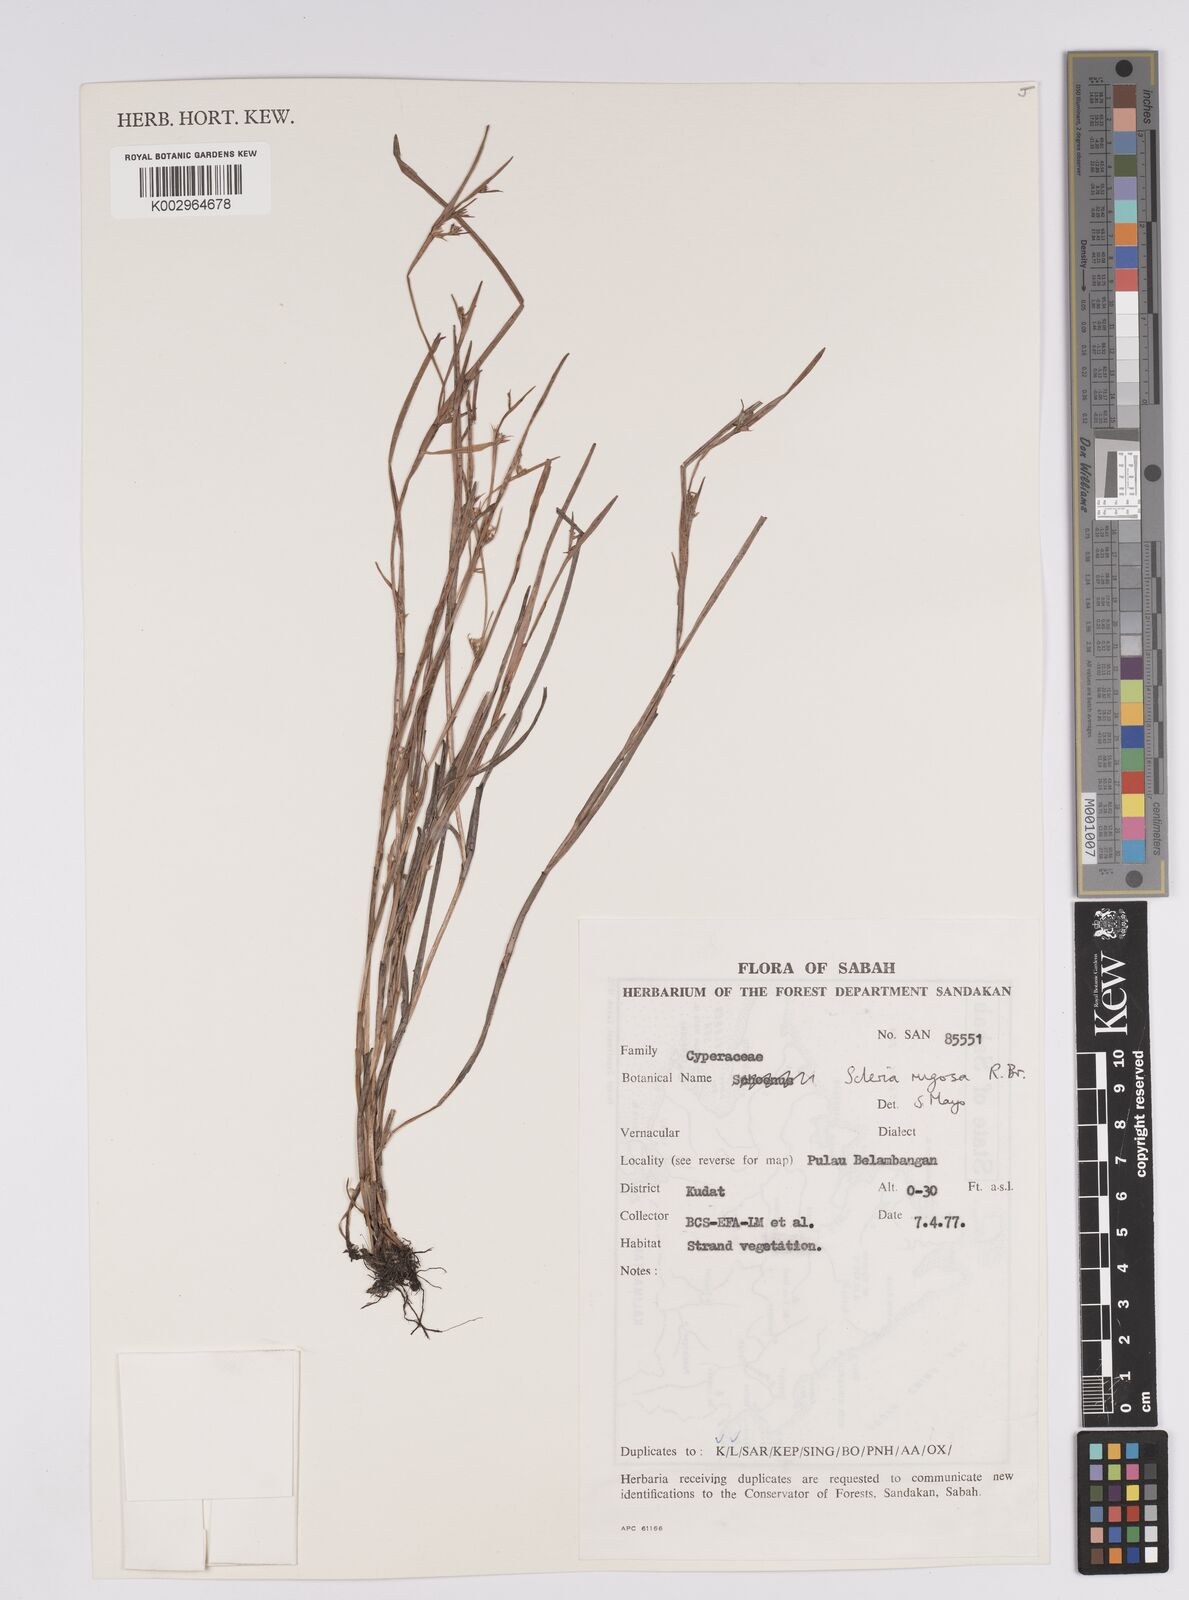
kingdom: Plantae
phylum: Tracheophyta
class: Liliopsida
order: Poales
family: Cyperaceae
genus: Scleria
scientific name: Scleria rugosa
